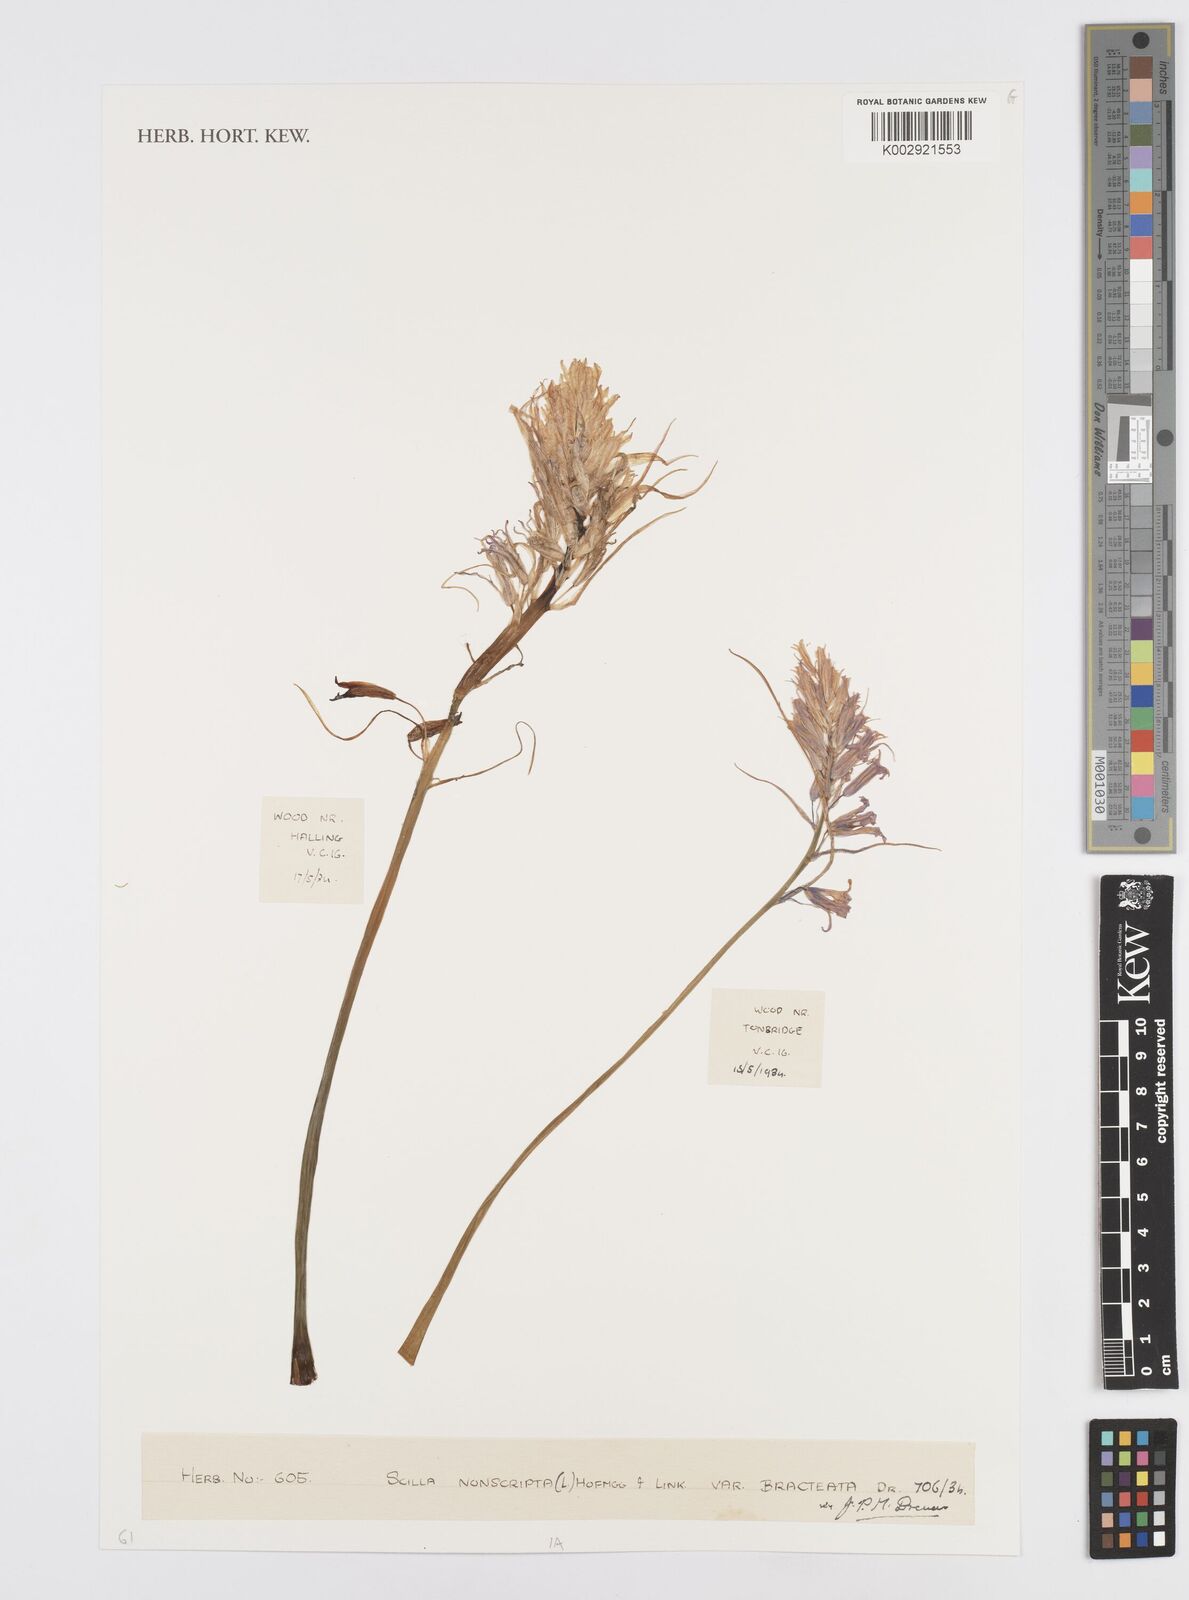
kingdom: Plantae
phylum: Tracheophyta
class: Liliopsida
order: Asparagales
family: Asparagaceae
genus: Hyacinthoides
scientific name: Hyacinthoides non-scripta
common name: Bluebell
